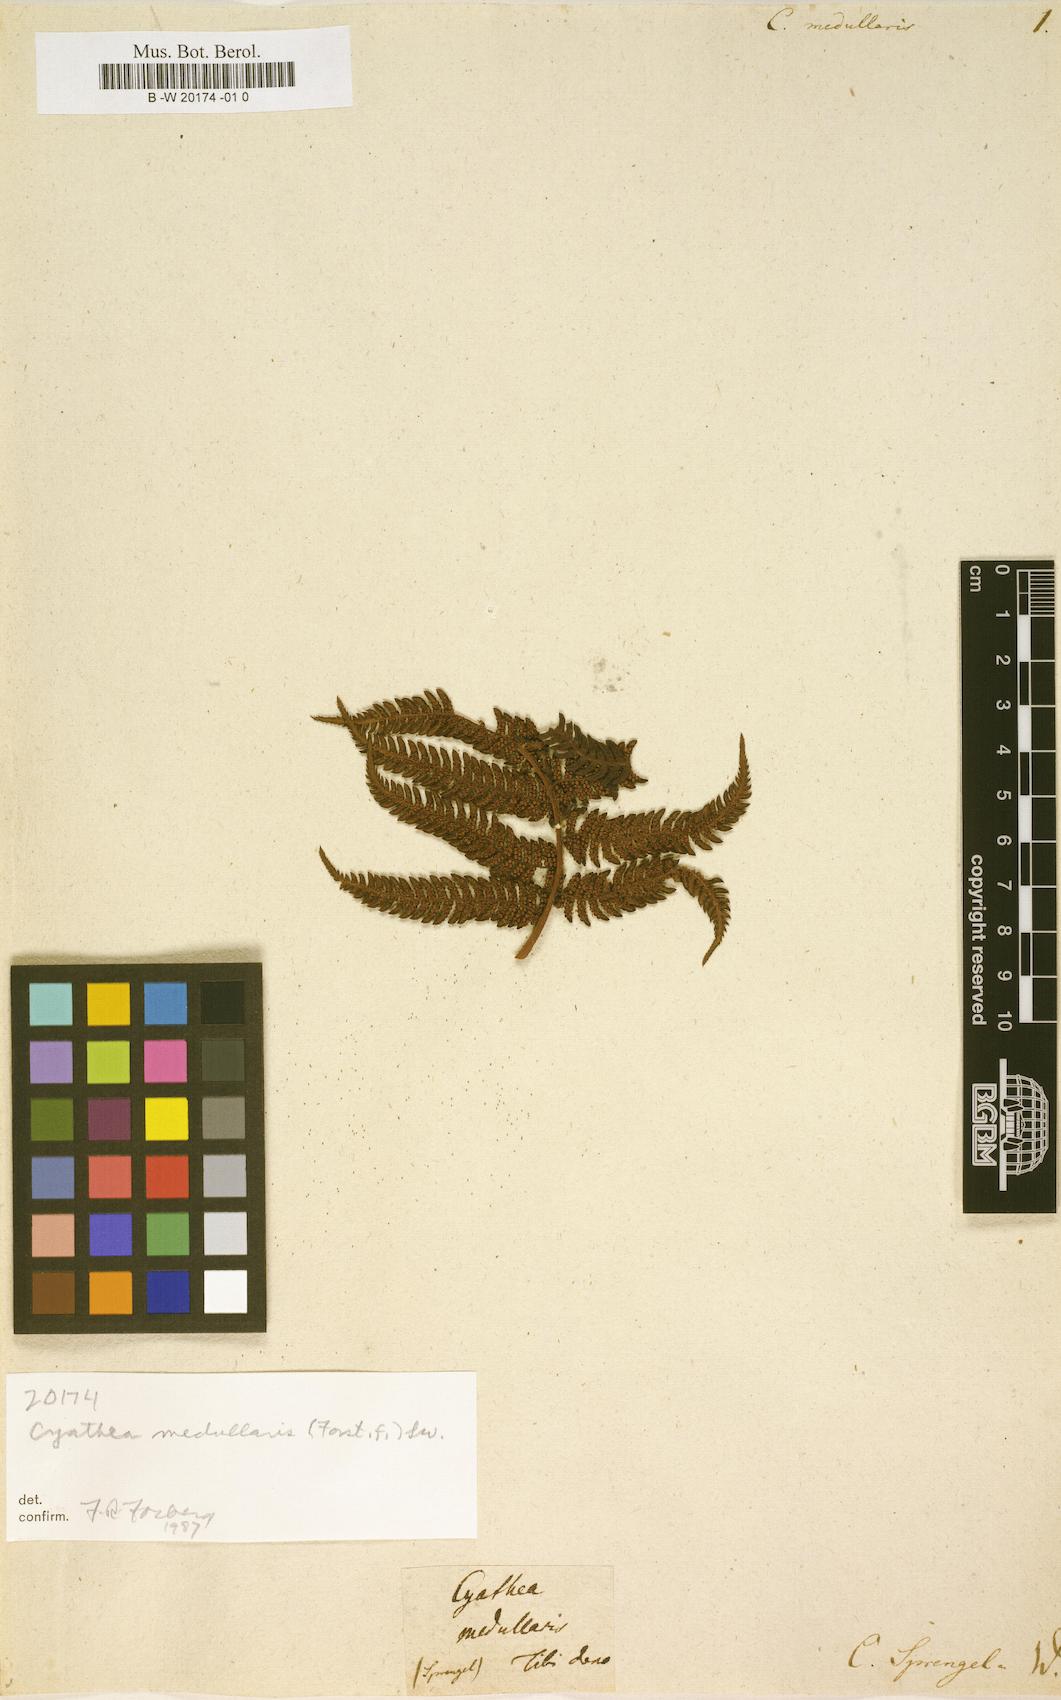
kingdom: Plantae
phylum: Tracheophyta
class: Polypodiopsida
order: Cyatheales
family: Cyatheaceae
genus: Sphaeropteris
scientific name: Sphaeropteris medullaris
